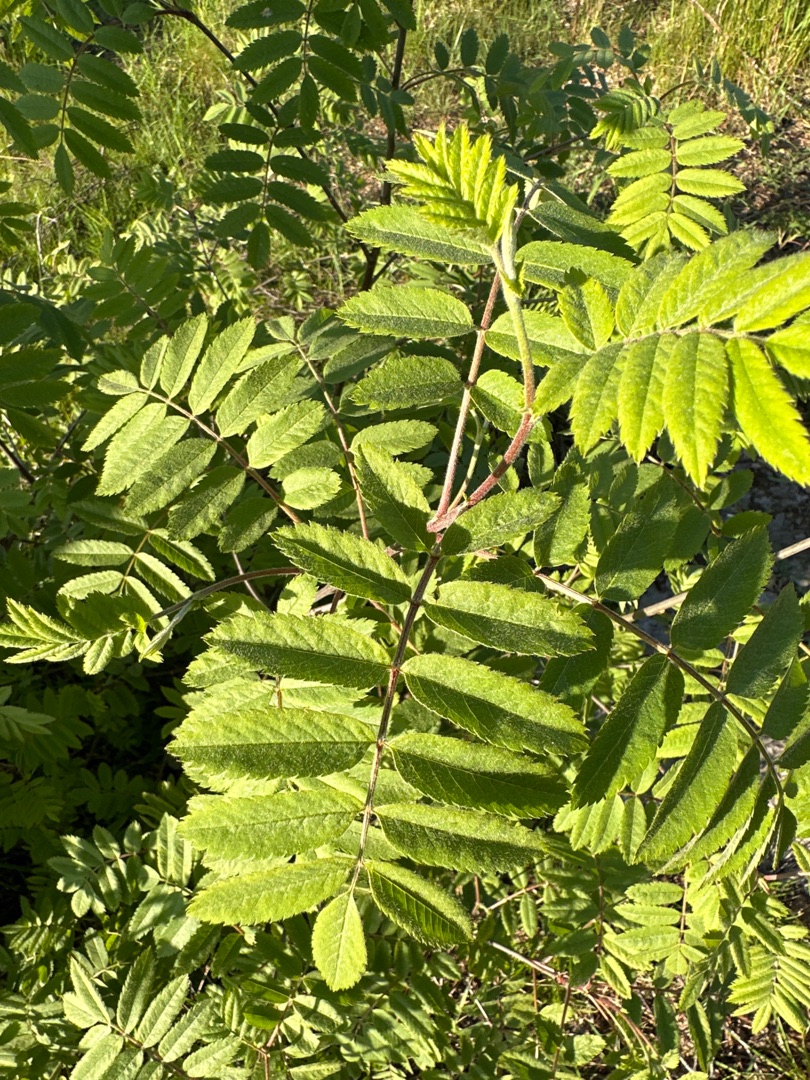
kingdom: Plantae
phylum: Tracheophyta
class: Magnoliopsida
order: Rosales
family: Rosaceae
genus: Sorbus
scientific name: Sorbus aucuparia
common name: Almindelig røn
